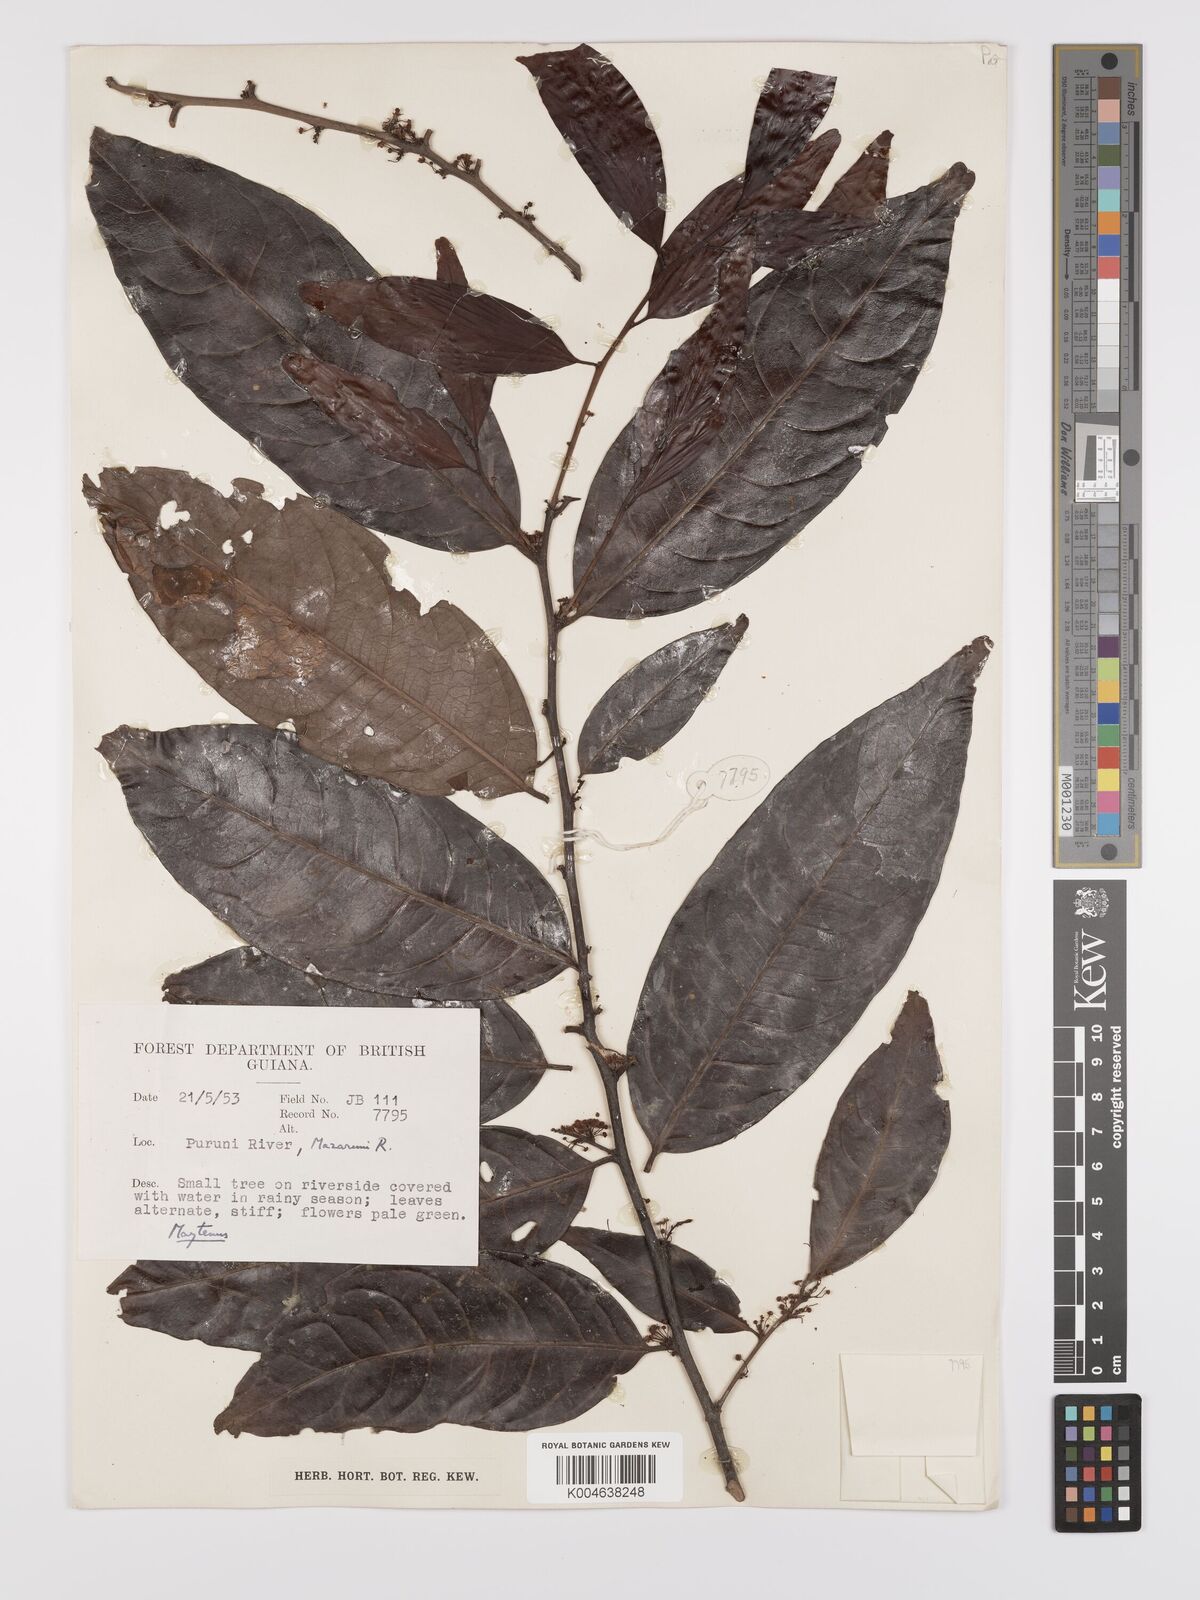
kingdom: Plantae
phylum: Tracheophyta
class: Magnoliopsida
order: Celastrales
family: Celastraceae
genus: Maytenus
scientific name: Maytenus
